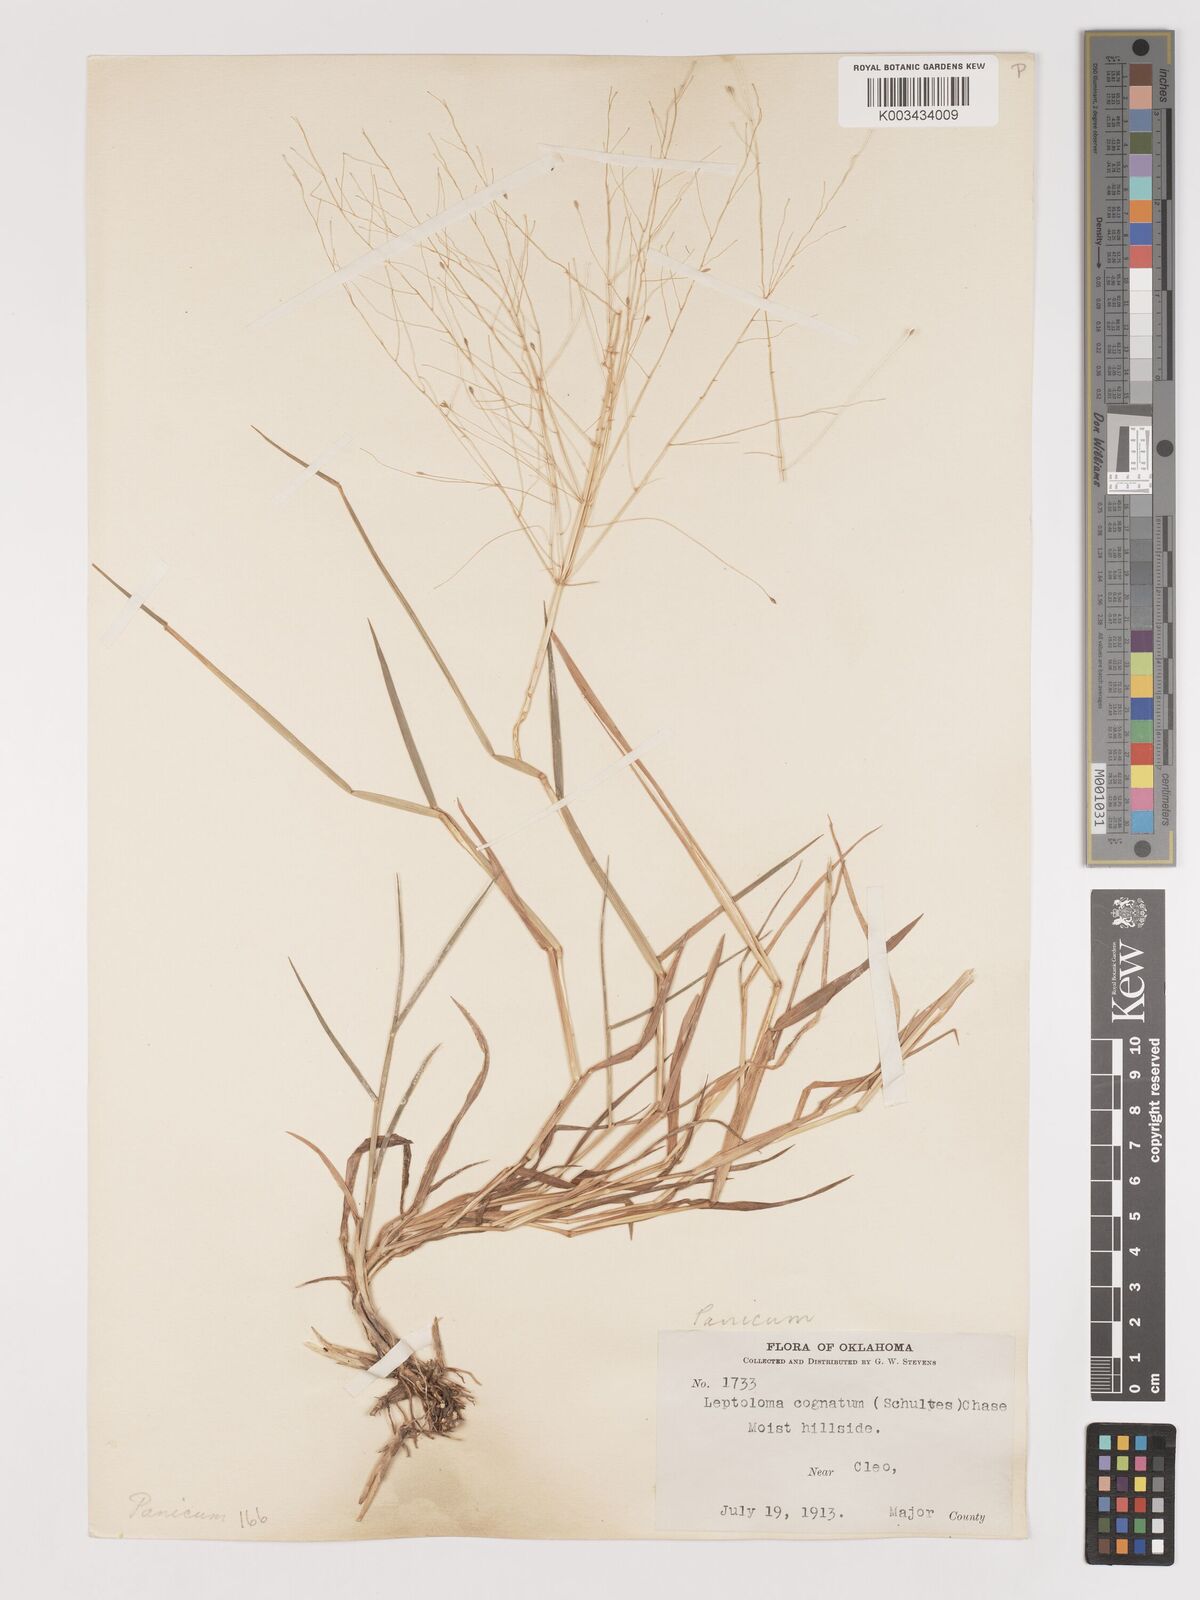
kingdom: Plantae
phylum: Tracheophyta
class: Liliopsida
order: Poales
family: Poaceae
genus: Digitaria
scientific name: Digitaria cognata
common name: Fall witchgrass
